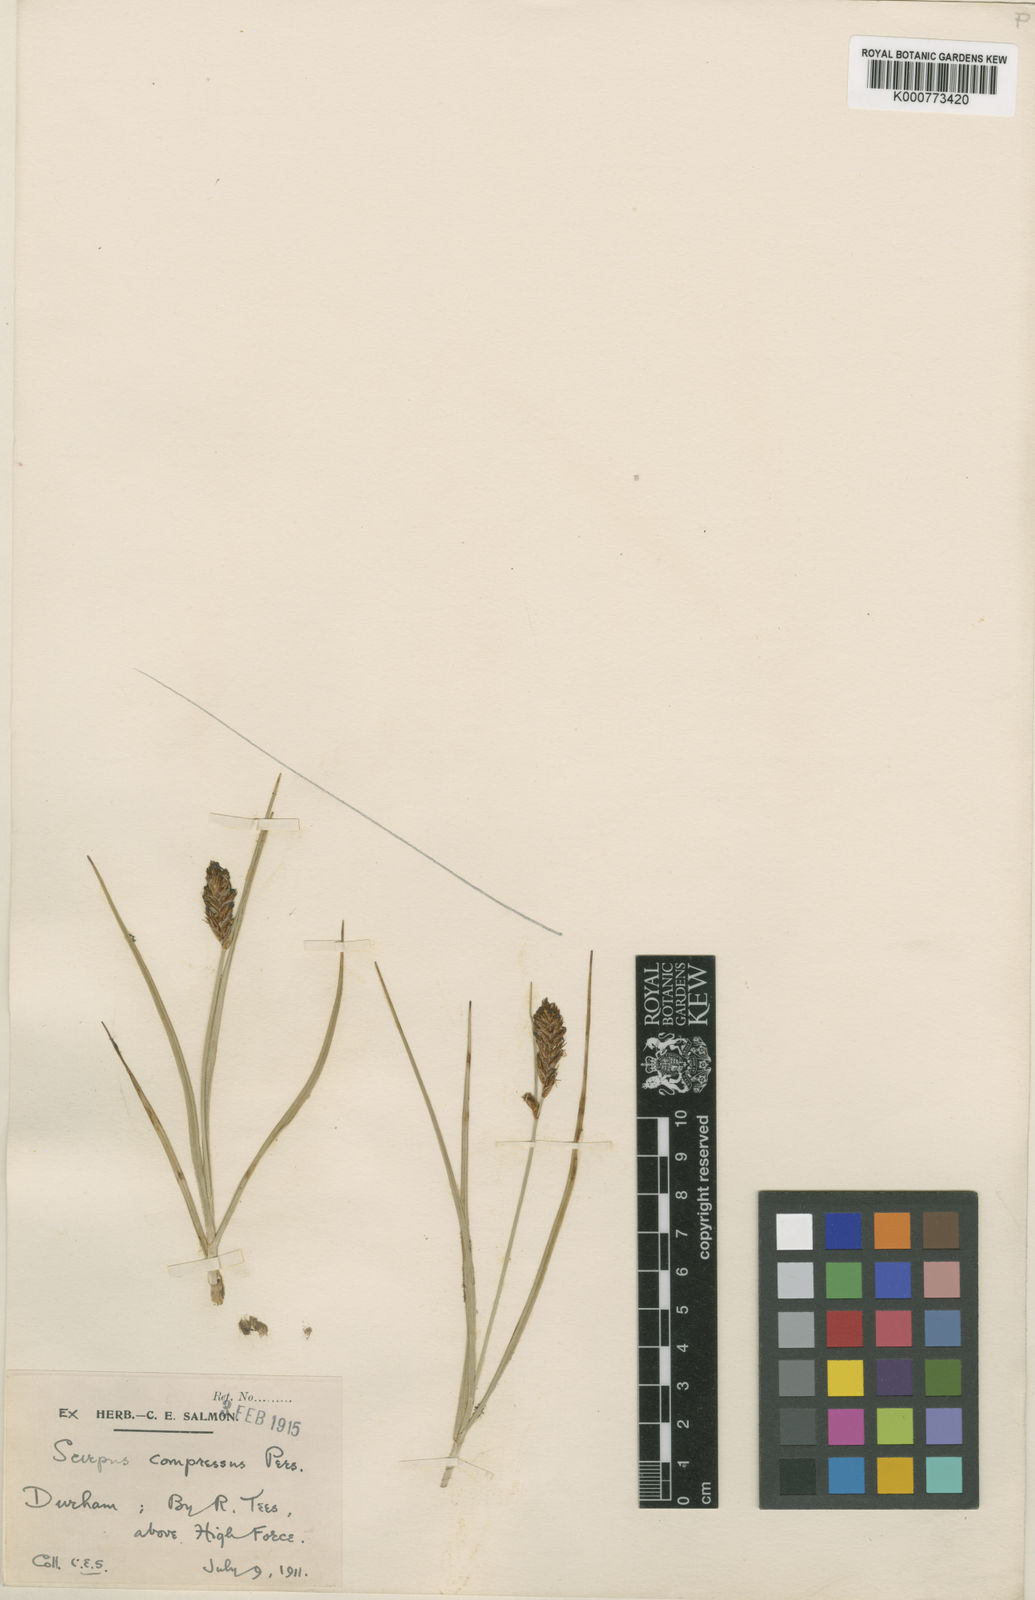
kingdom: Plantae
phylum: Tracheophyta
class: Liliopsida
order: Poales
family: Cyperaceae
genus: Blysmus
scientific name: Blysmus compressus
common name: Flat-sedge
